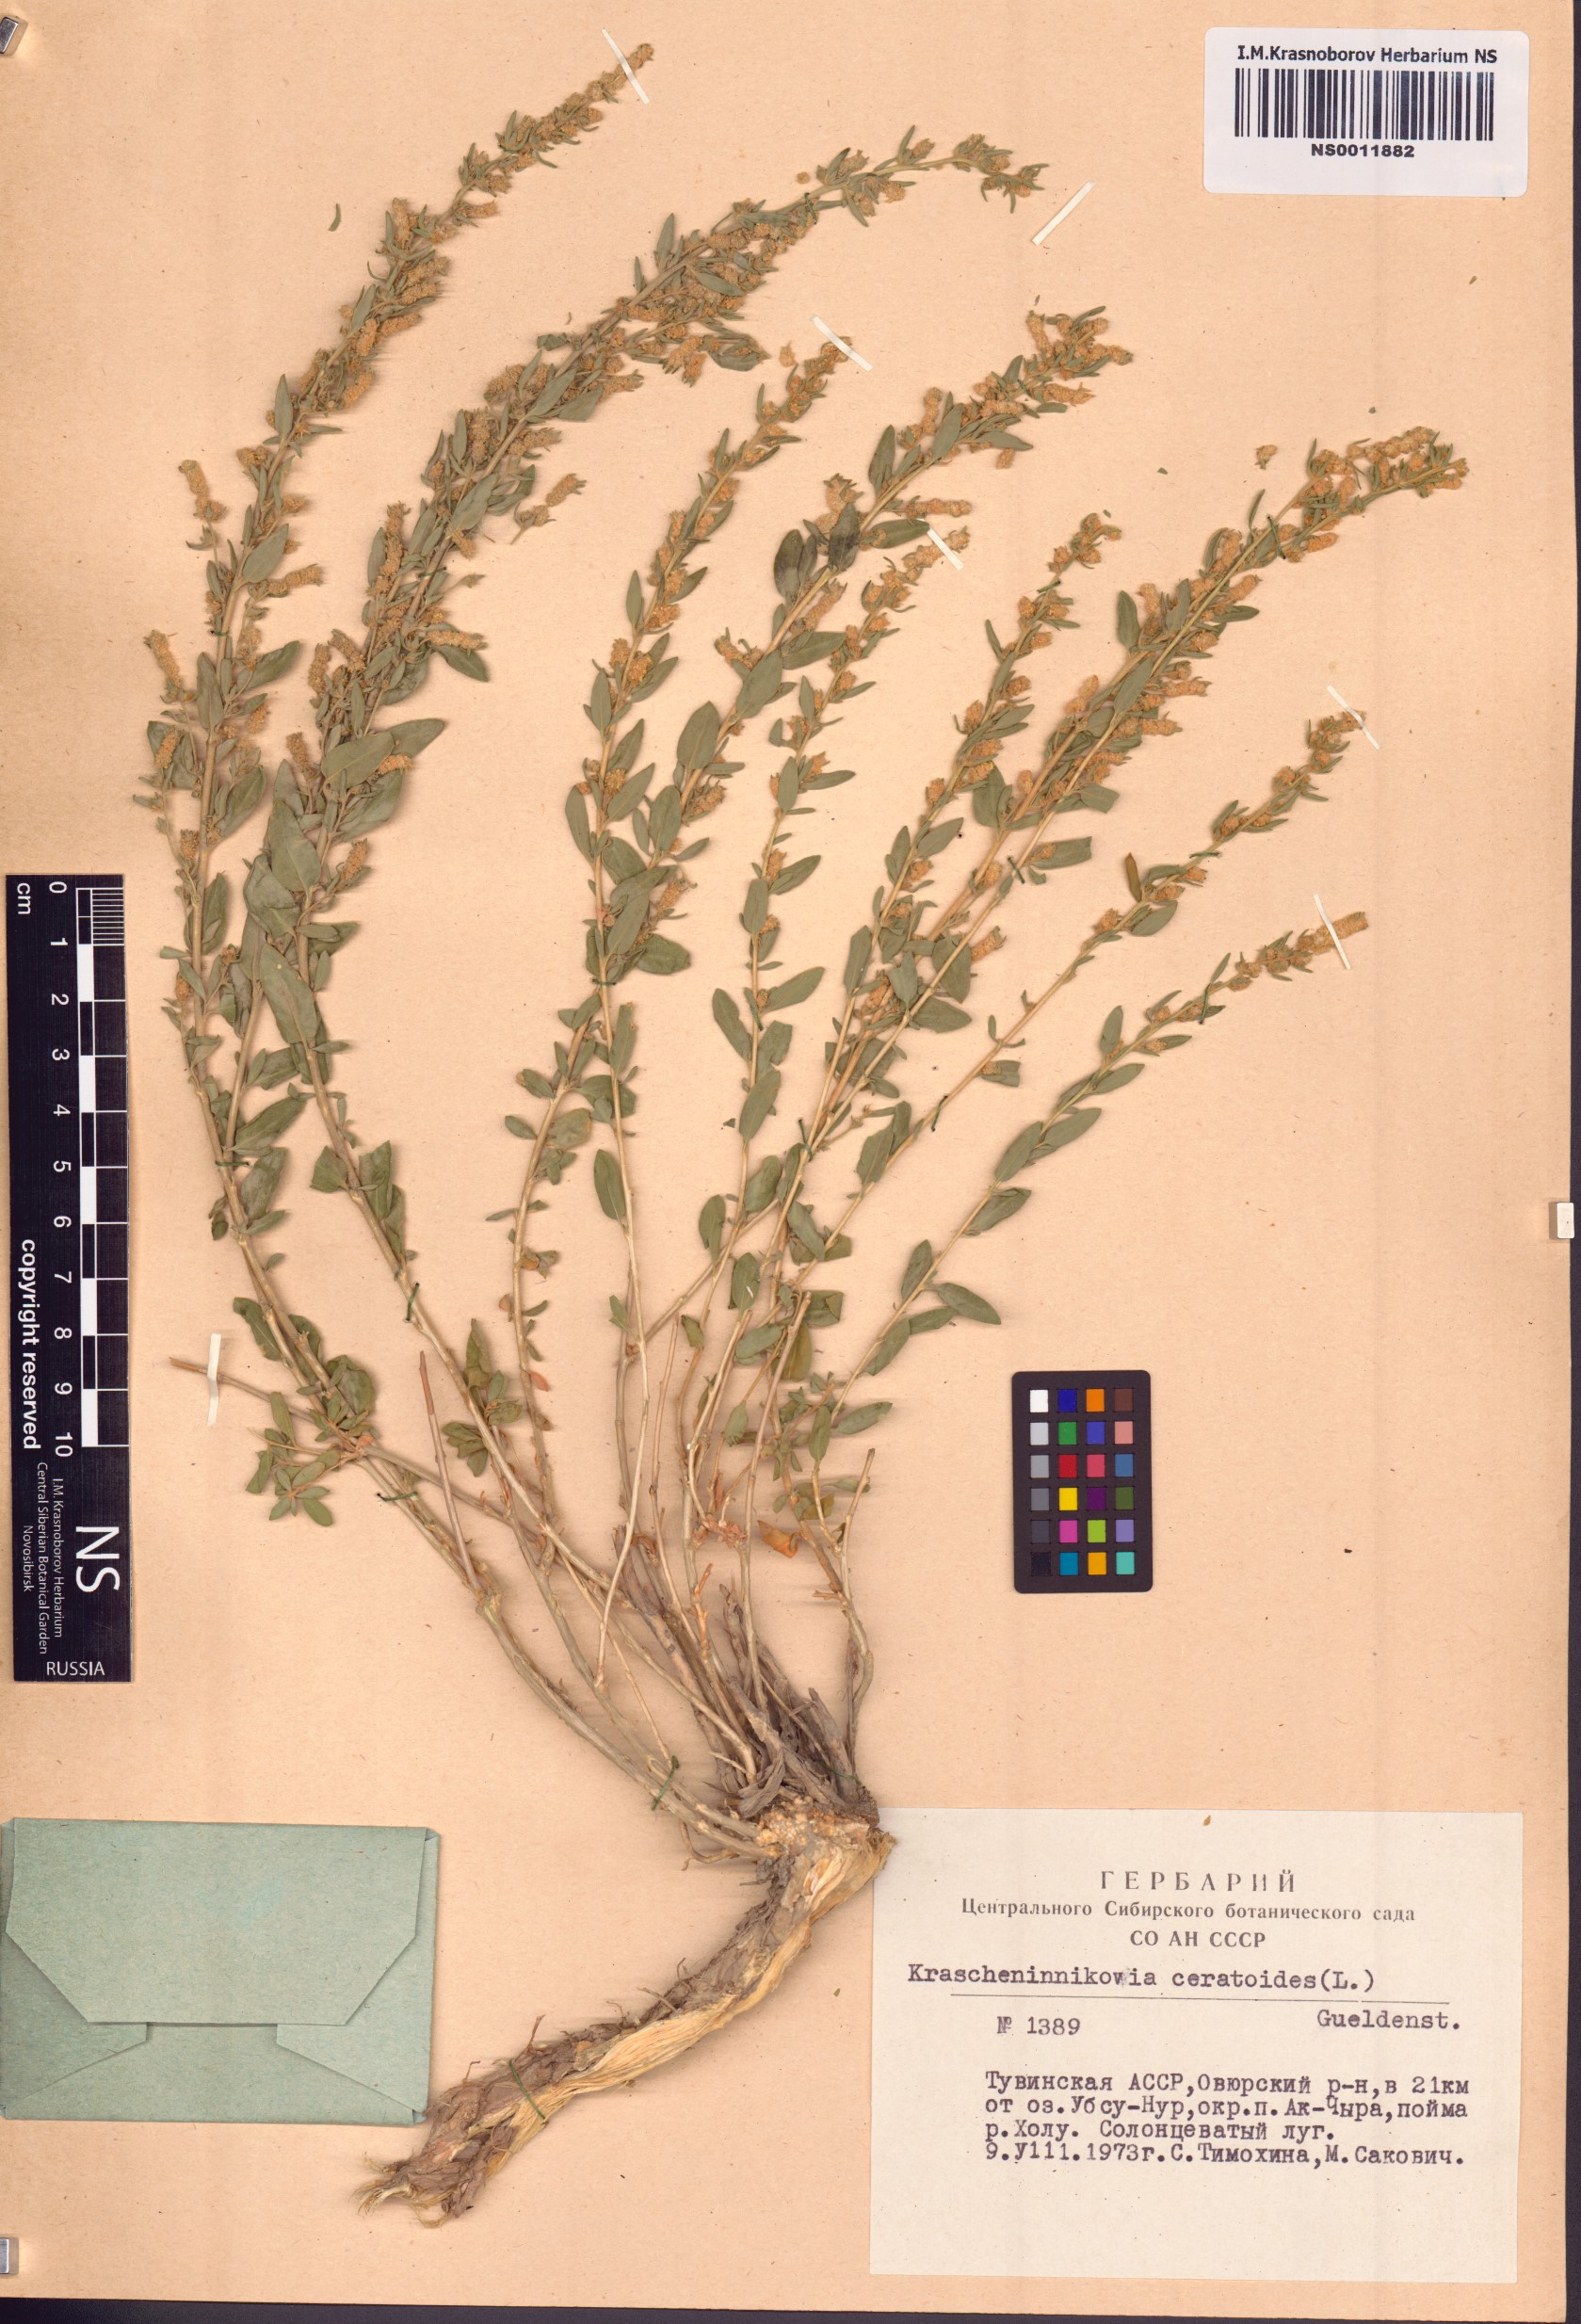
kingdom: Plantae
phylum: Tracheophyta
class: Magnoliopsida
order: Caryophyllales
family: Amaranthaceae
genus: Krascheninnikovia
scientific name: Krascheninnikovia ceratoides
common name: Pamirian winterfat
